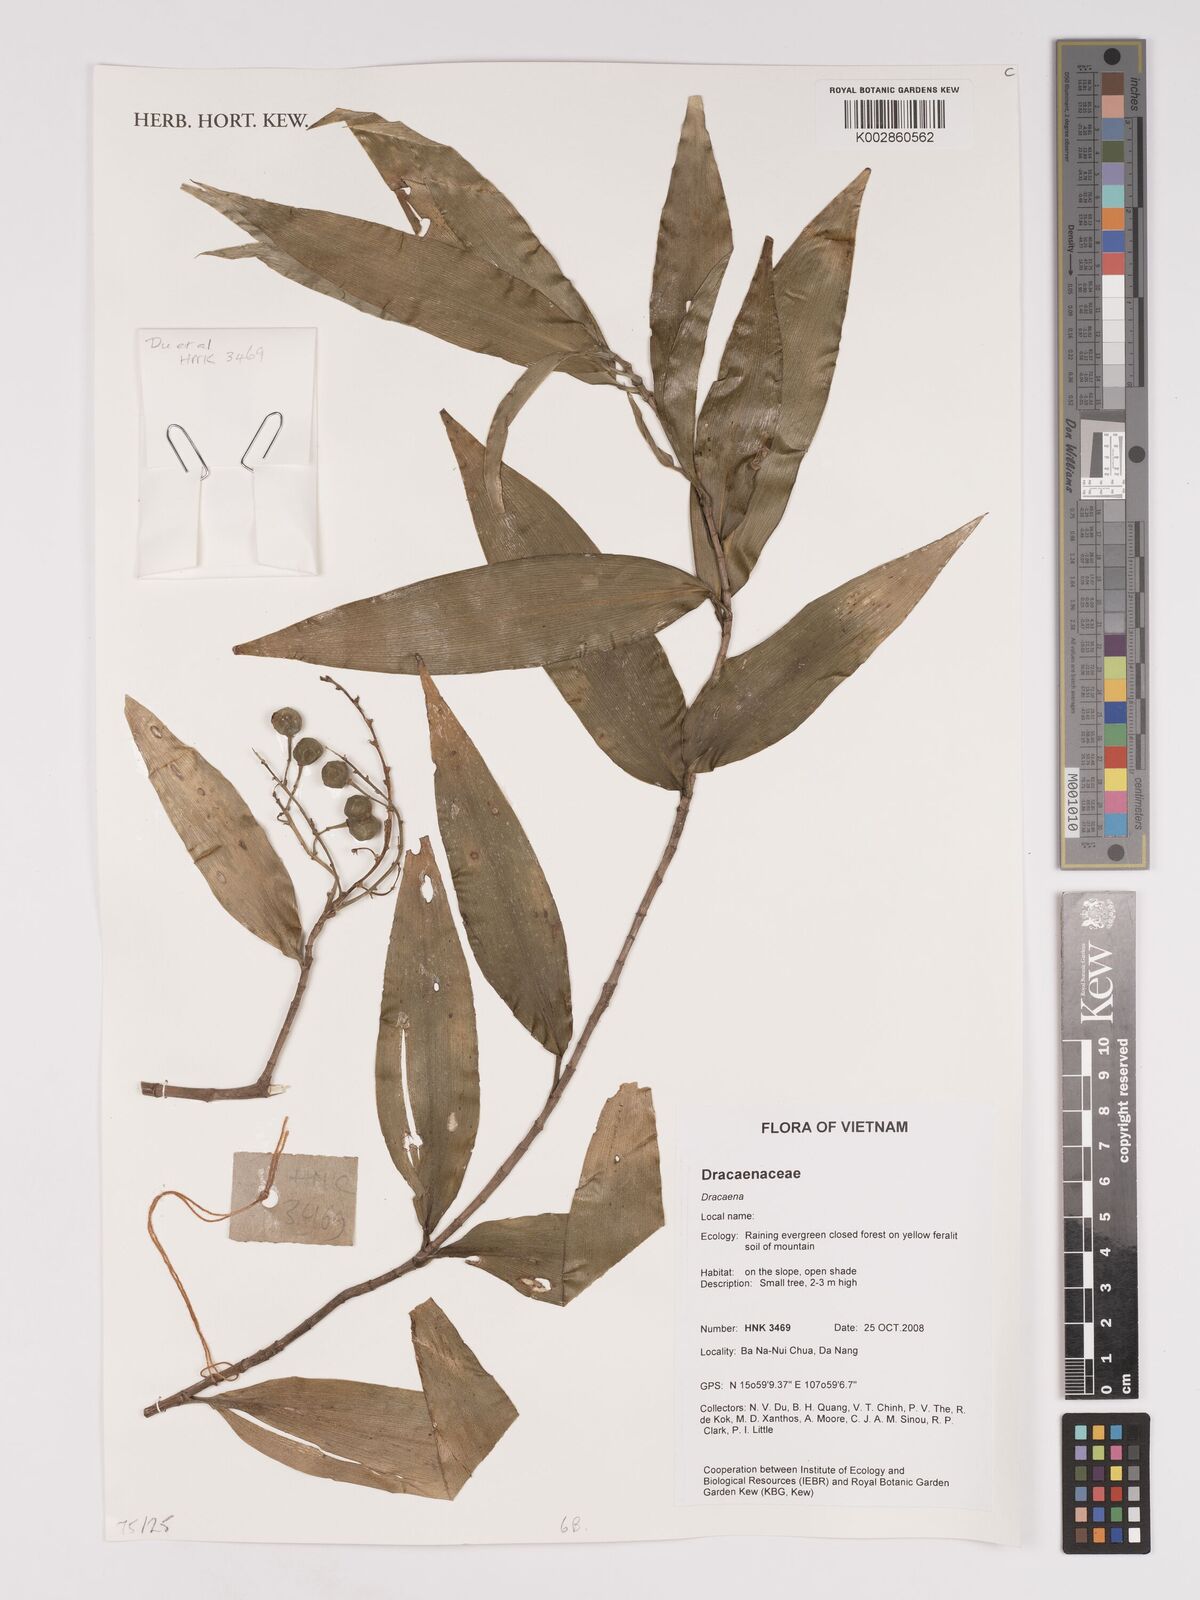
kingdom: Plantae
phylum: Tracheophyta
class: Liliopsida
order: Asparagales
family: Asparagaceae
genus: Dracaena
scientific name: Dracaena
